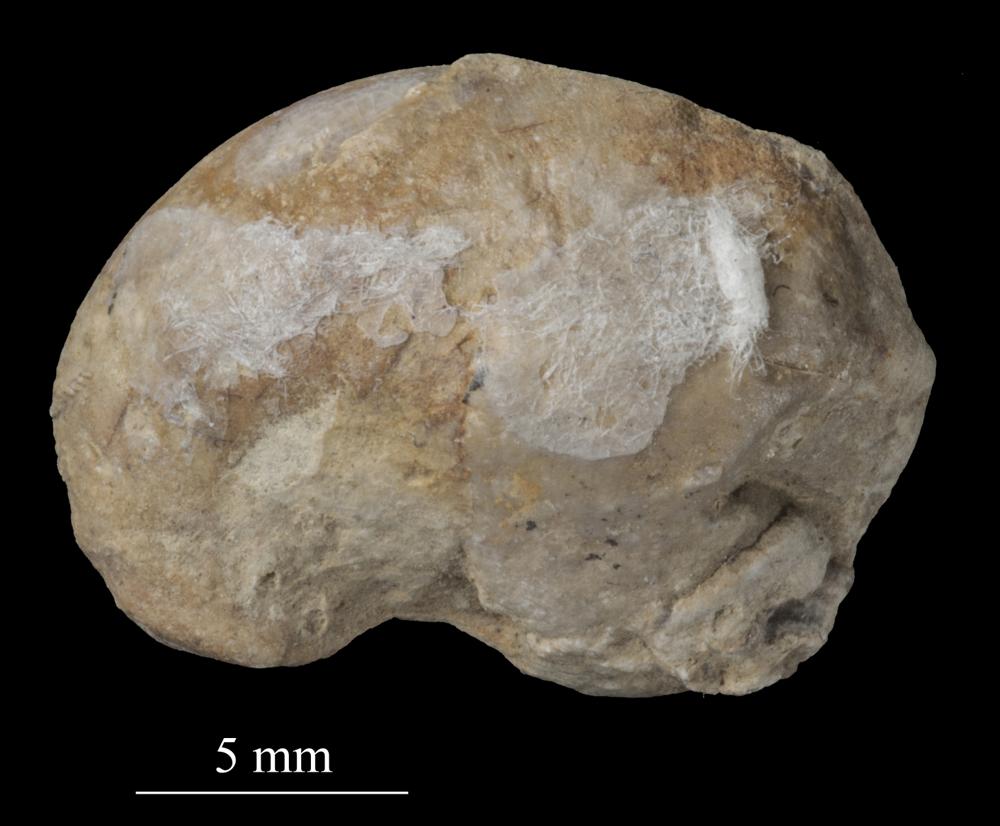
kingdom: Animalia
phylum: Mollusca
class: Gastropoda
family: Bellerophontidae
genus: Bellerophon
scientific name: Bellerophon
